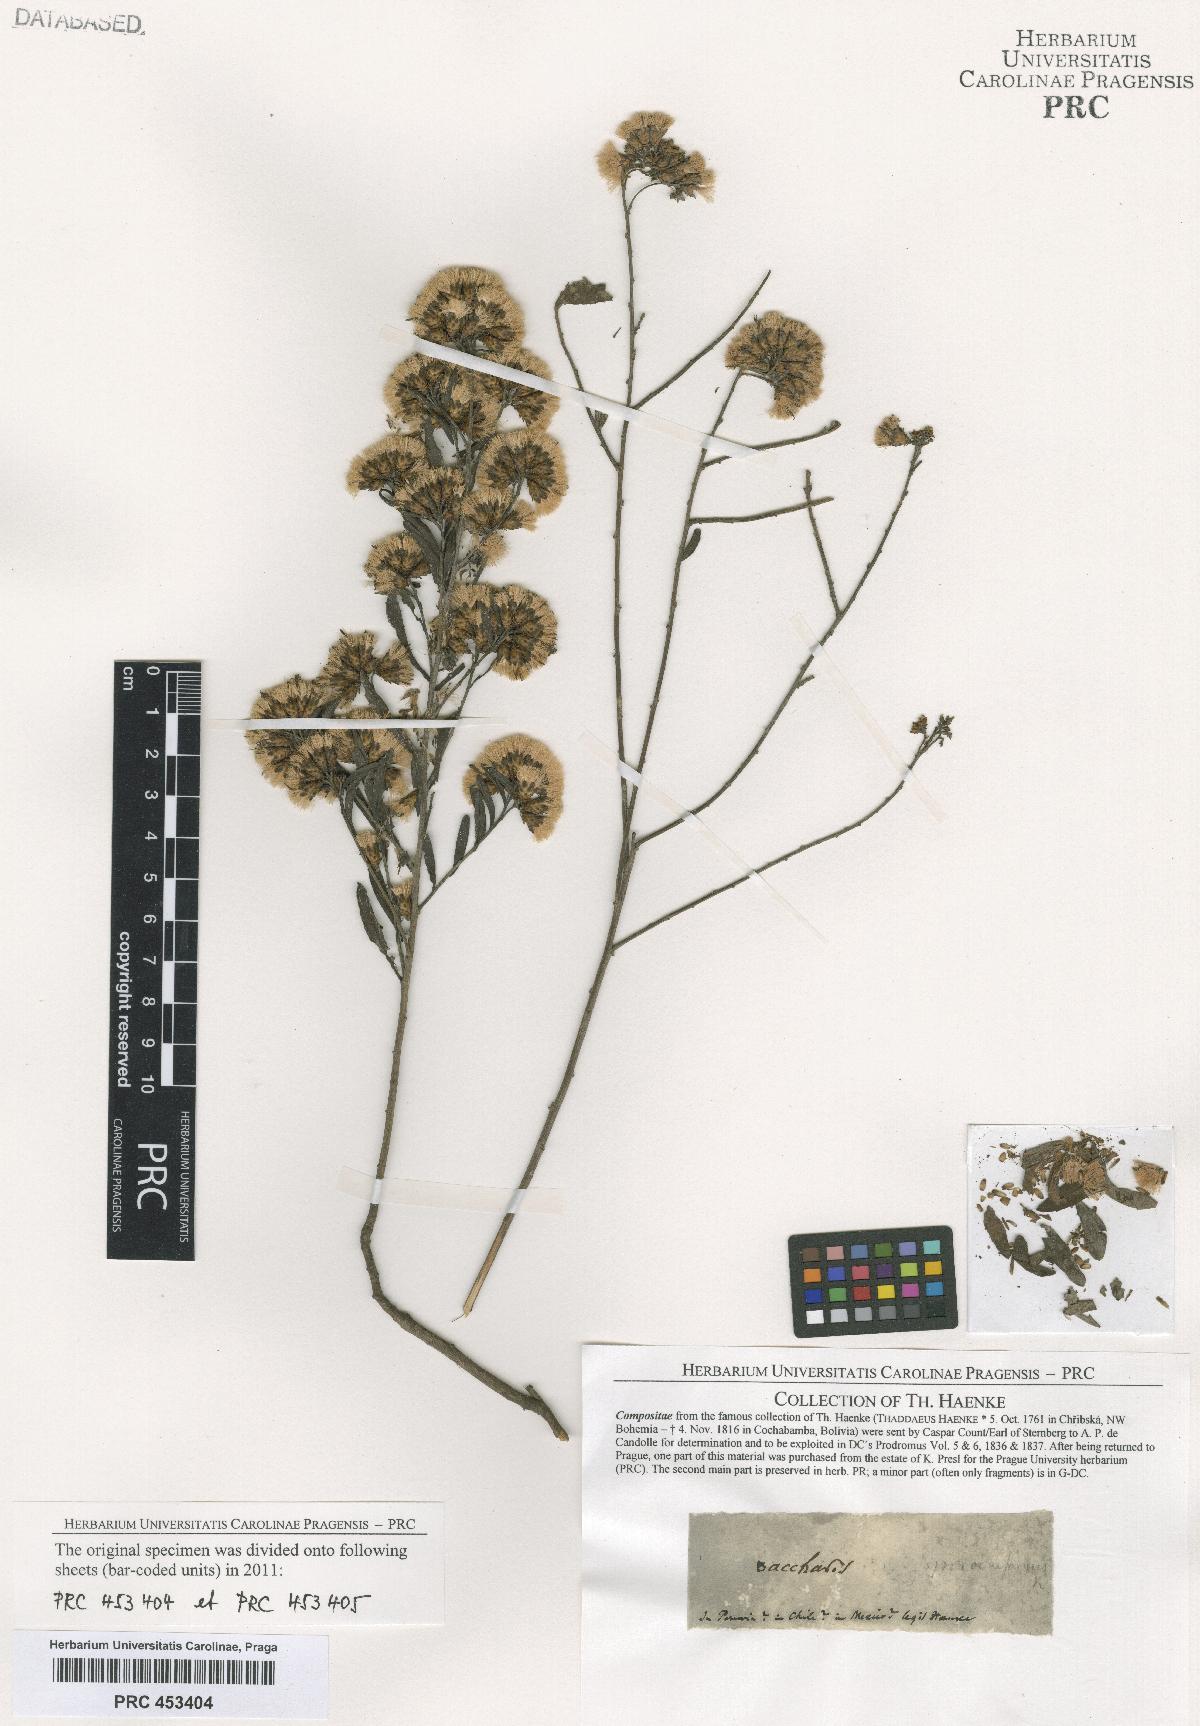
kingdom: Plantae
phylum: Tracheophyta
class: Magnoliopsida
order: Asterales
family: Asteraceae
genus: Baccharis
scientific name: Baccharis
